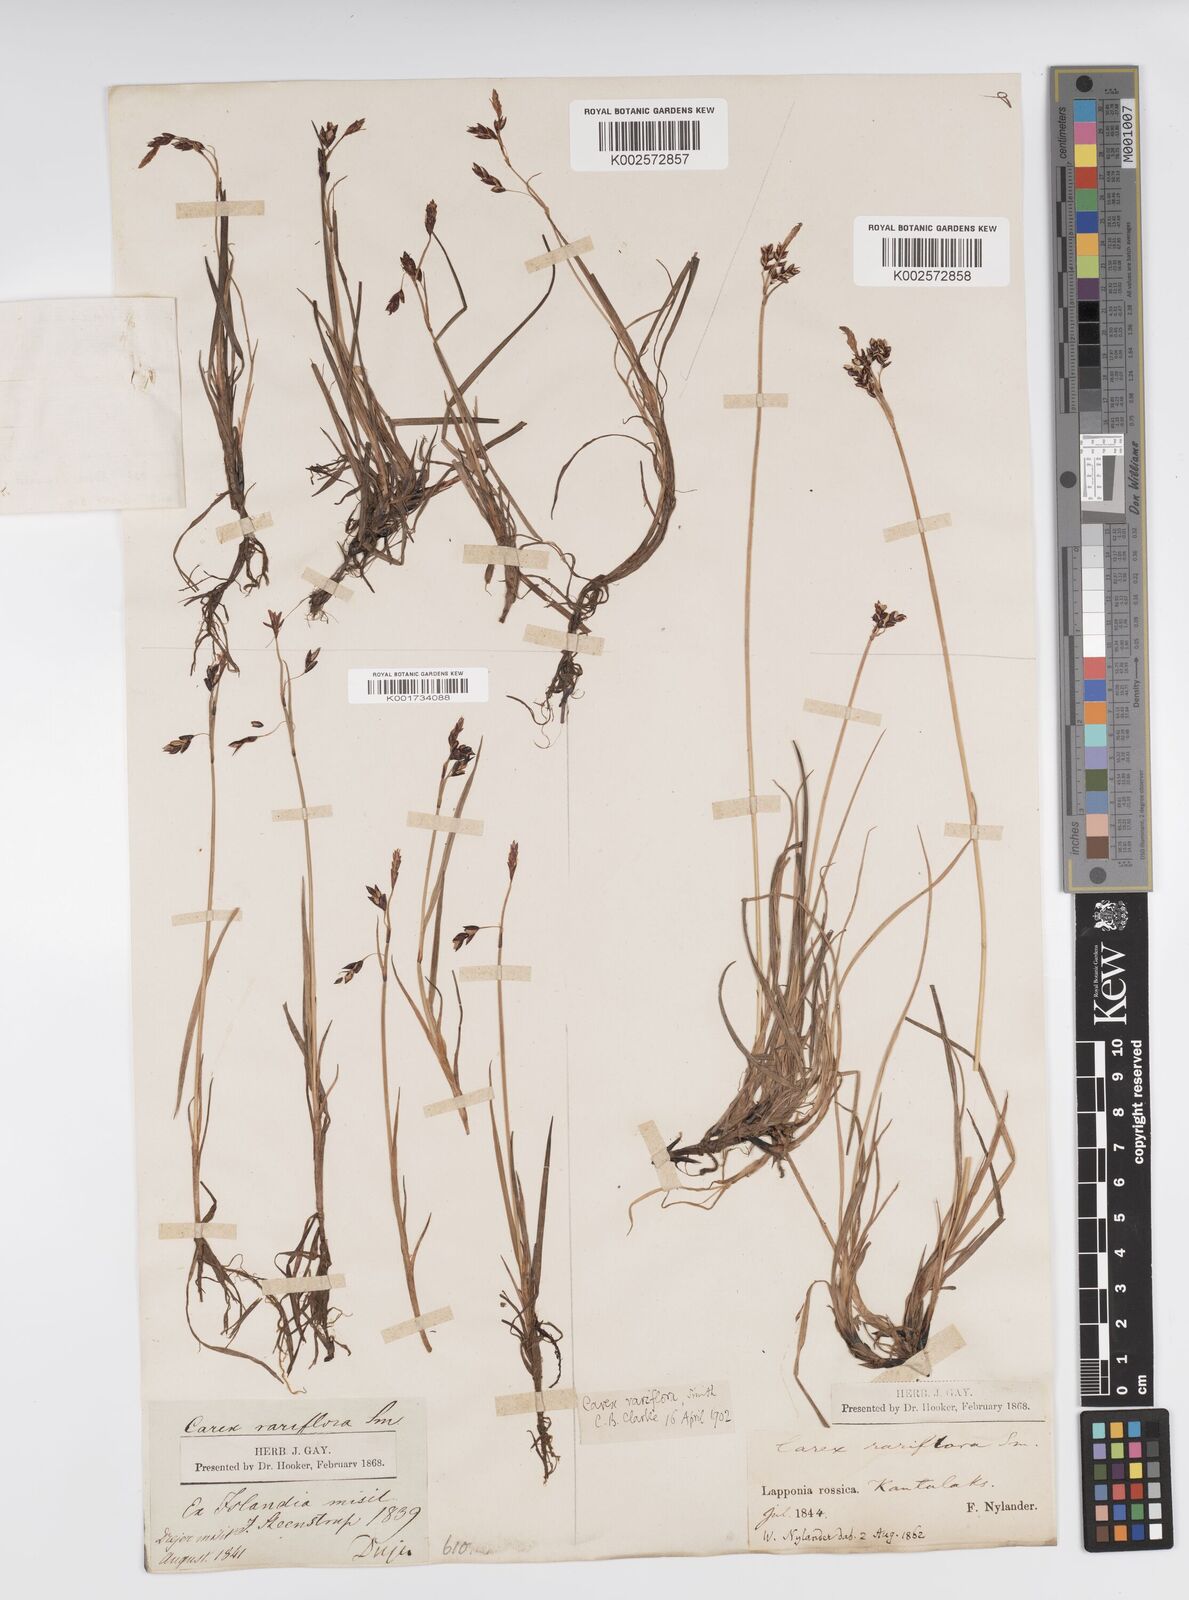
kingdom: Plantae
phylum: Tracheophyta
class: Liliopsida
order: Poales
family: Cyperaceae
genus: Carex
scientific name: Carex rariflora
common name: Loose-flowered alpine sedge
